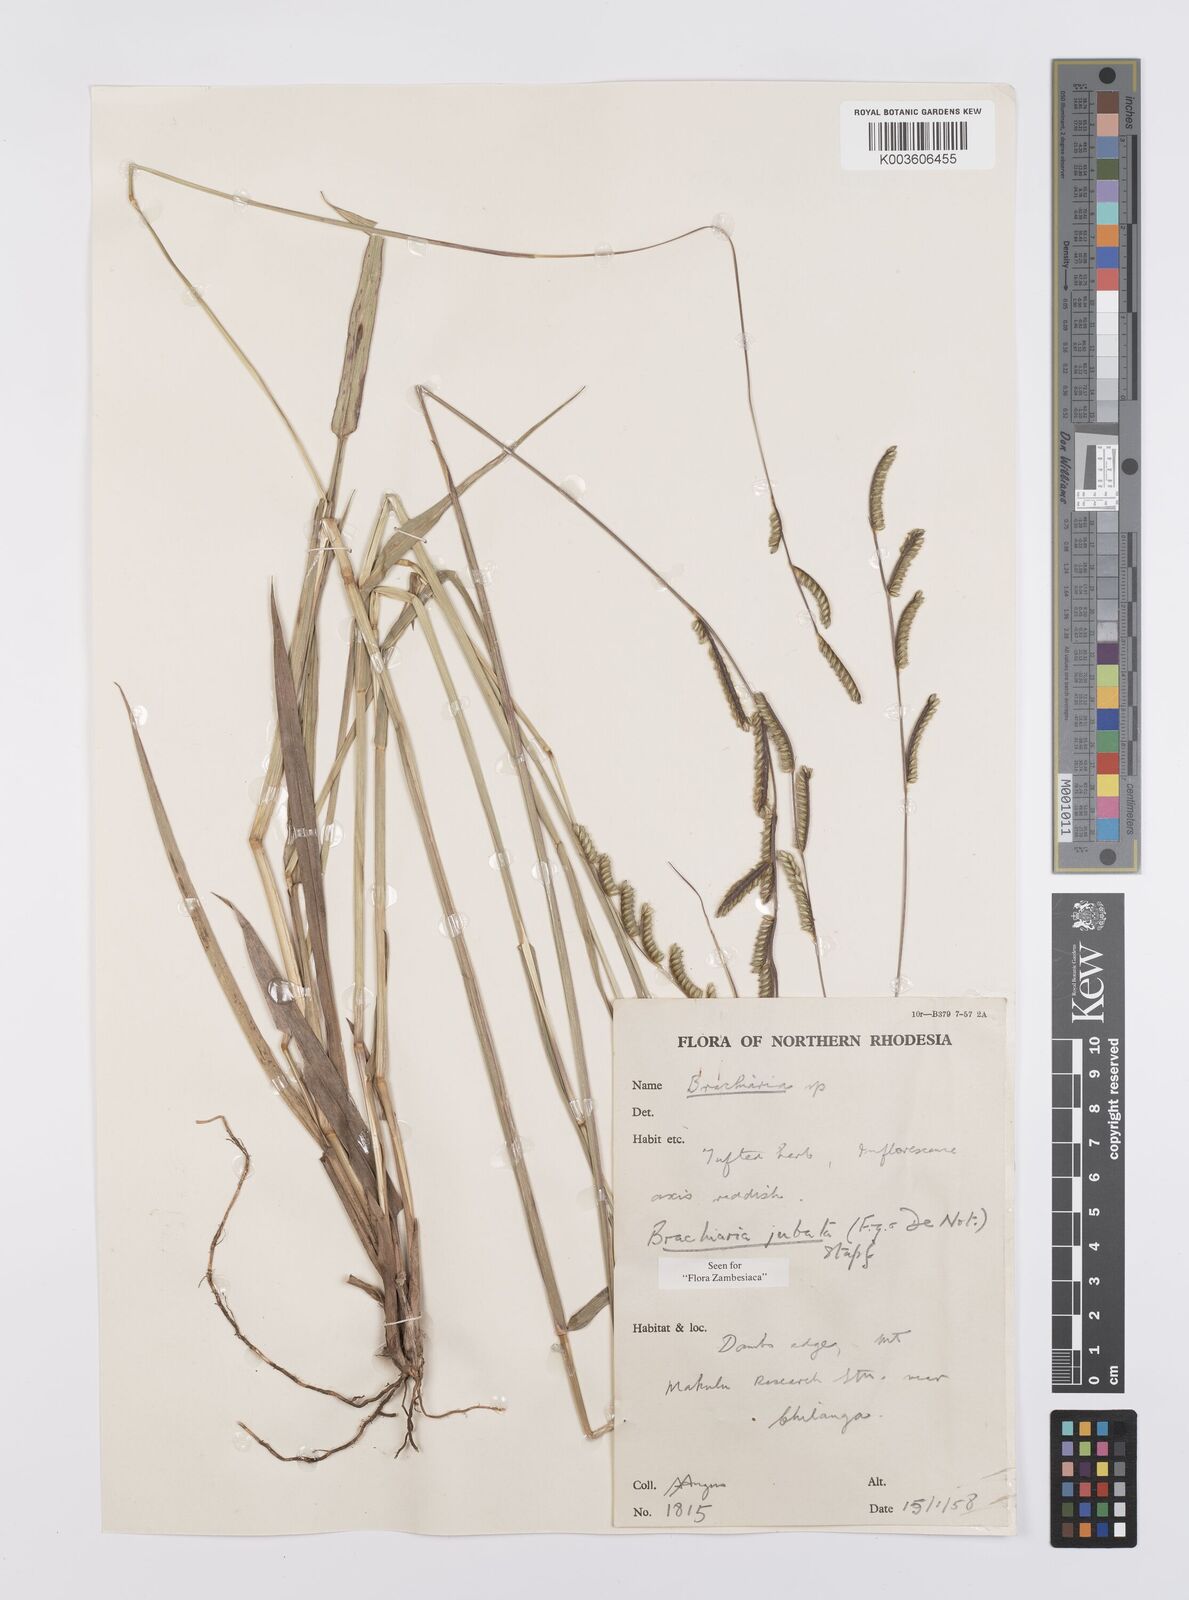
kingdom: Plantae
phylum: Tracheophyta
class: Liliopsida
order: Poales
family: Poaceae
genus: Urochloa
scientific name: Urochloa jubata
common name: Buffalograss
